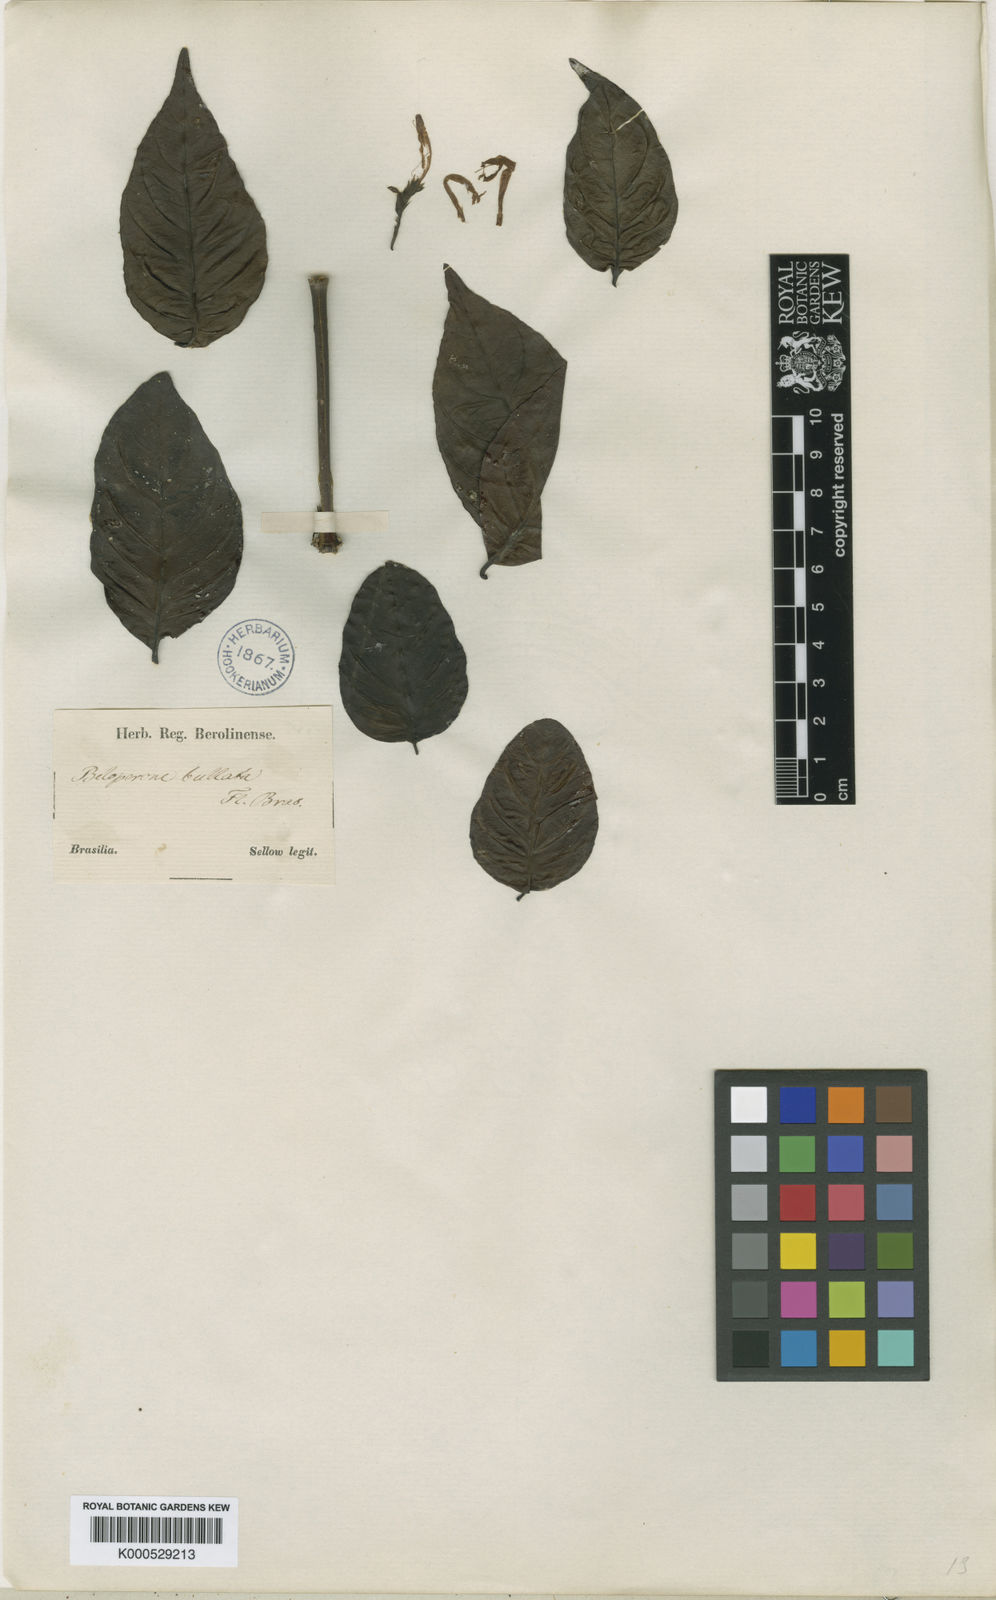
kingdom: Plantae
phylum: Tracheophyta
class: Magnoliopsida
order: Lamiales
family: Acanthaceae
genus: Justicia
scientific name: Justicia bullata
